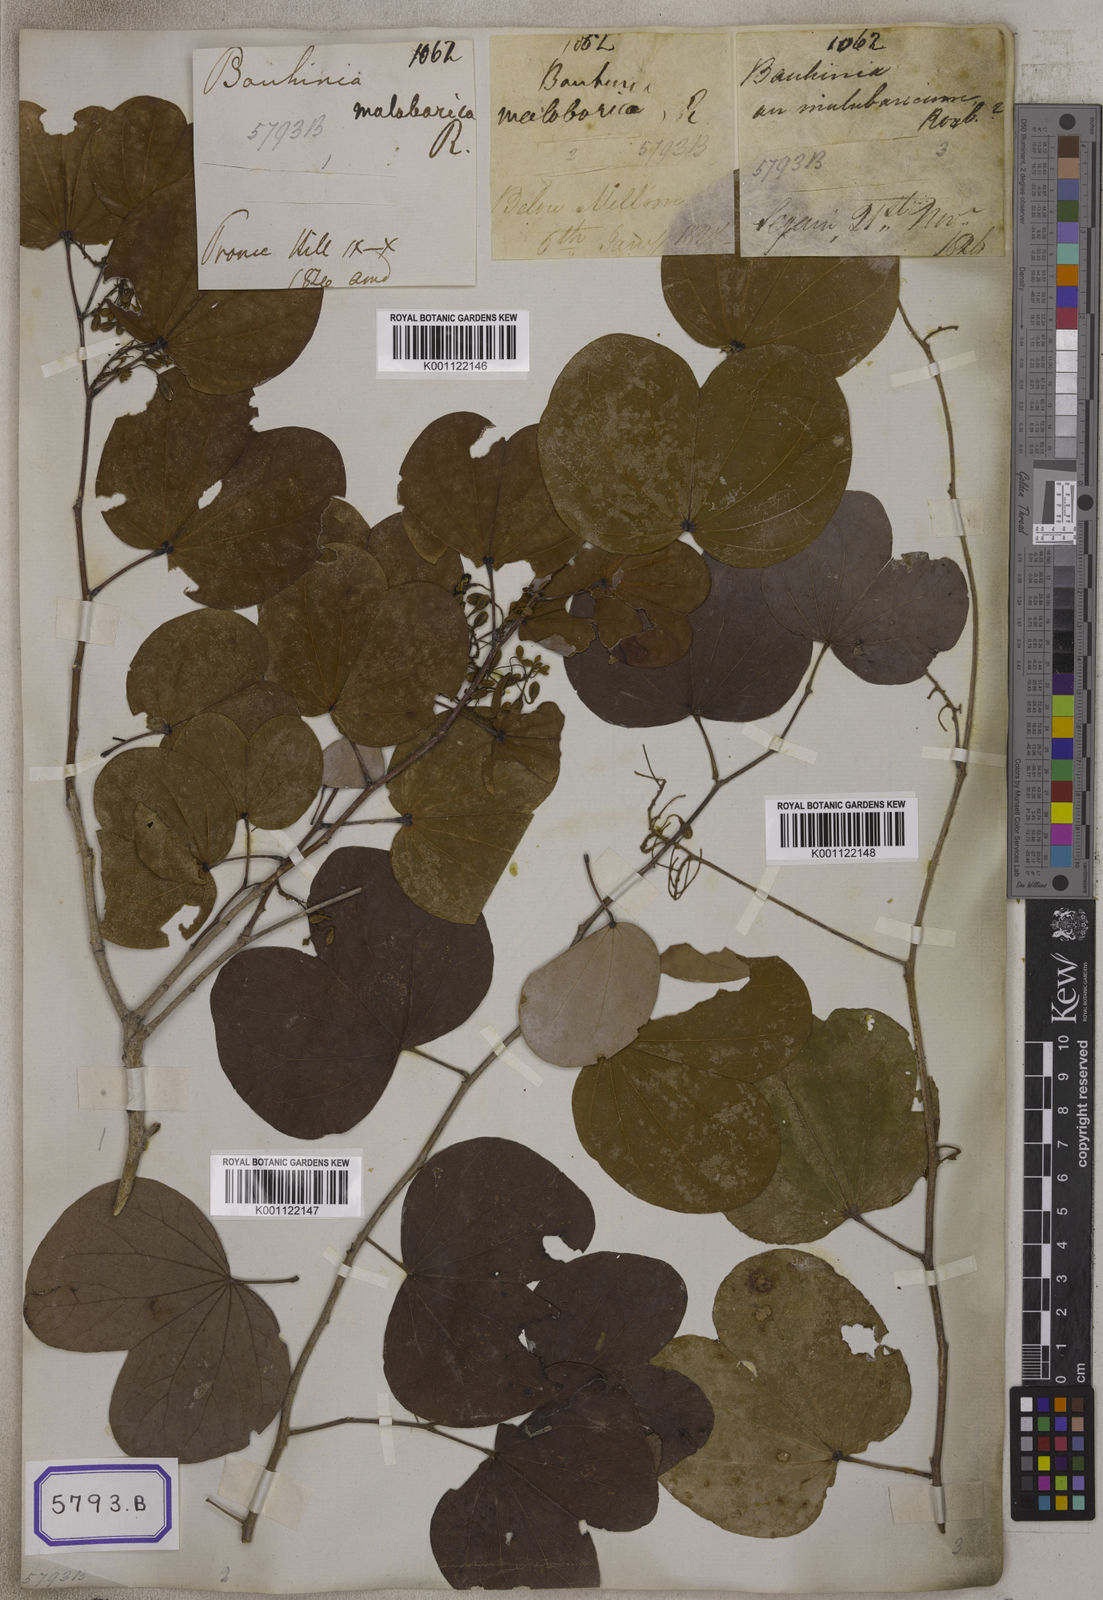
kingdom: Plantae
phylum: Tracheophyta
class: Magnoliopsida
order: Fabales
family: Fabaceae
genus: Piliostigma
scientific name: Piliostigma malabaricum
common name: Malabar bauhinia
